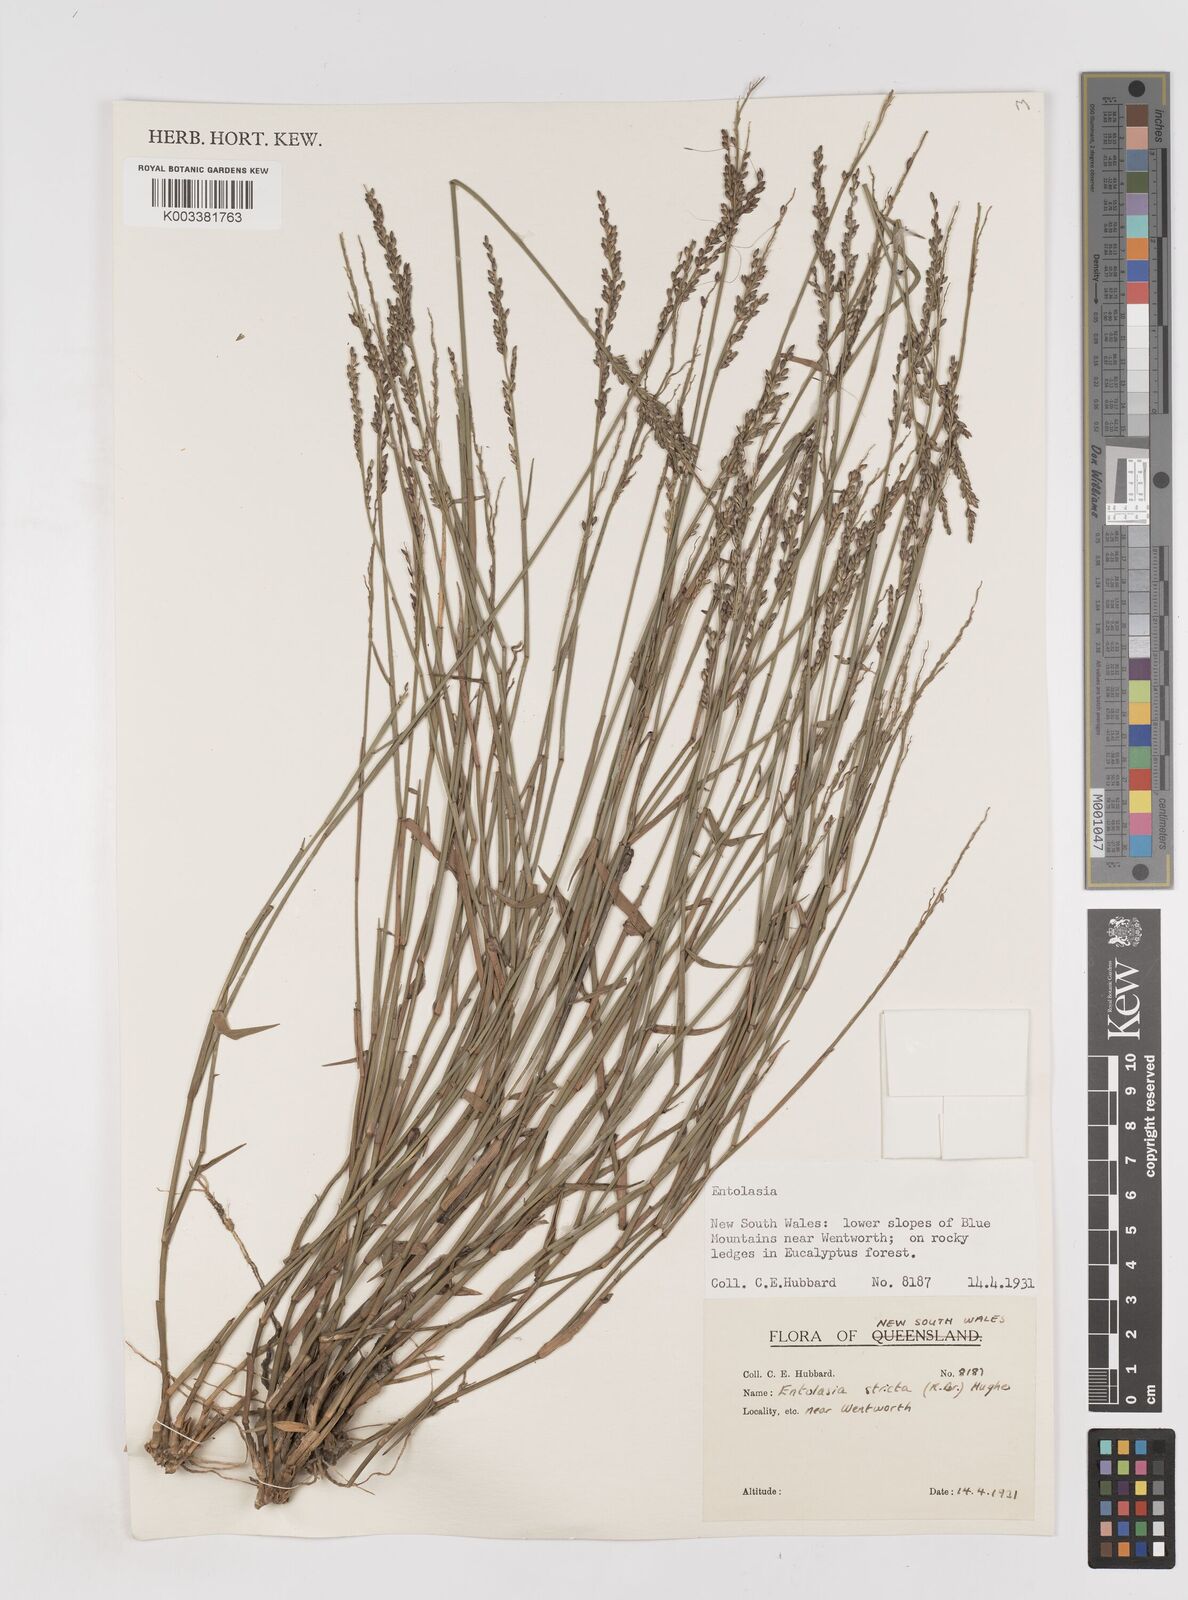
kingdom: Plantae
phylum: Tracheophyta
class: Liliopsida
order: Poales
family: Poaceae
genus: Entolasia
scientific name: Entolasia stricta
